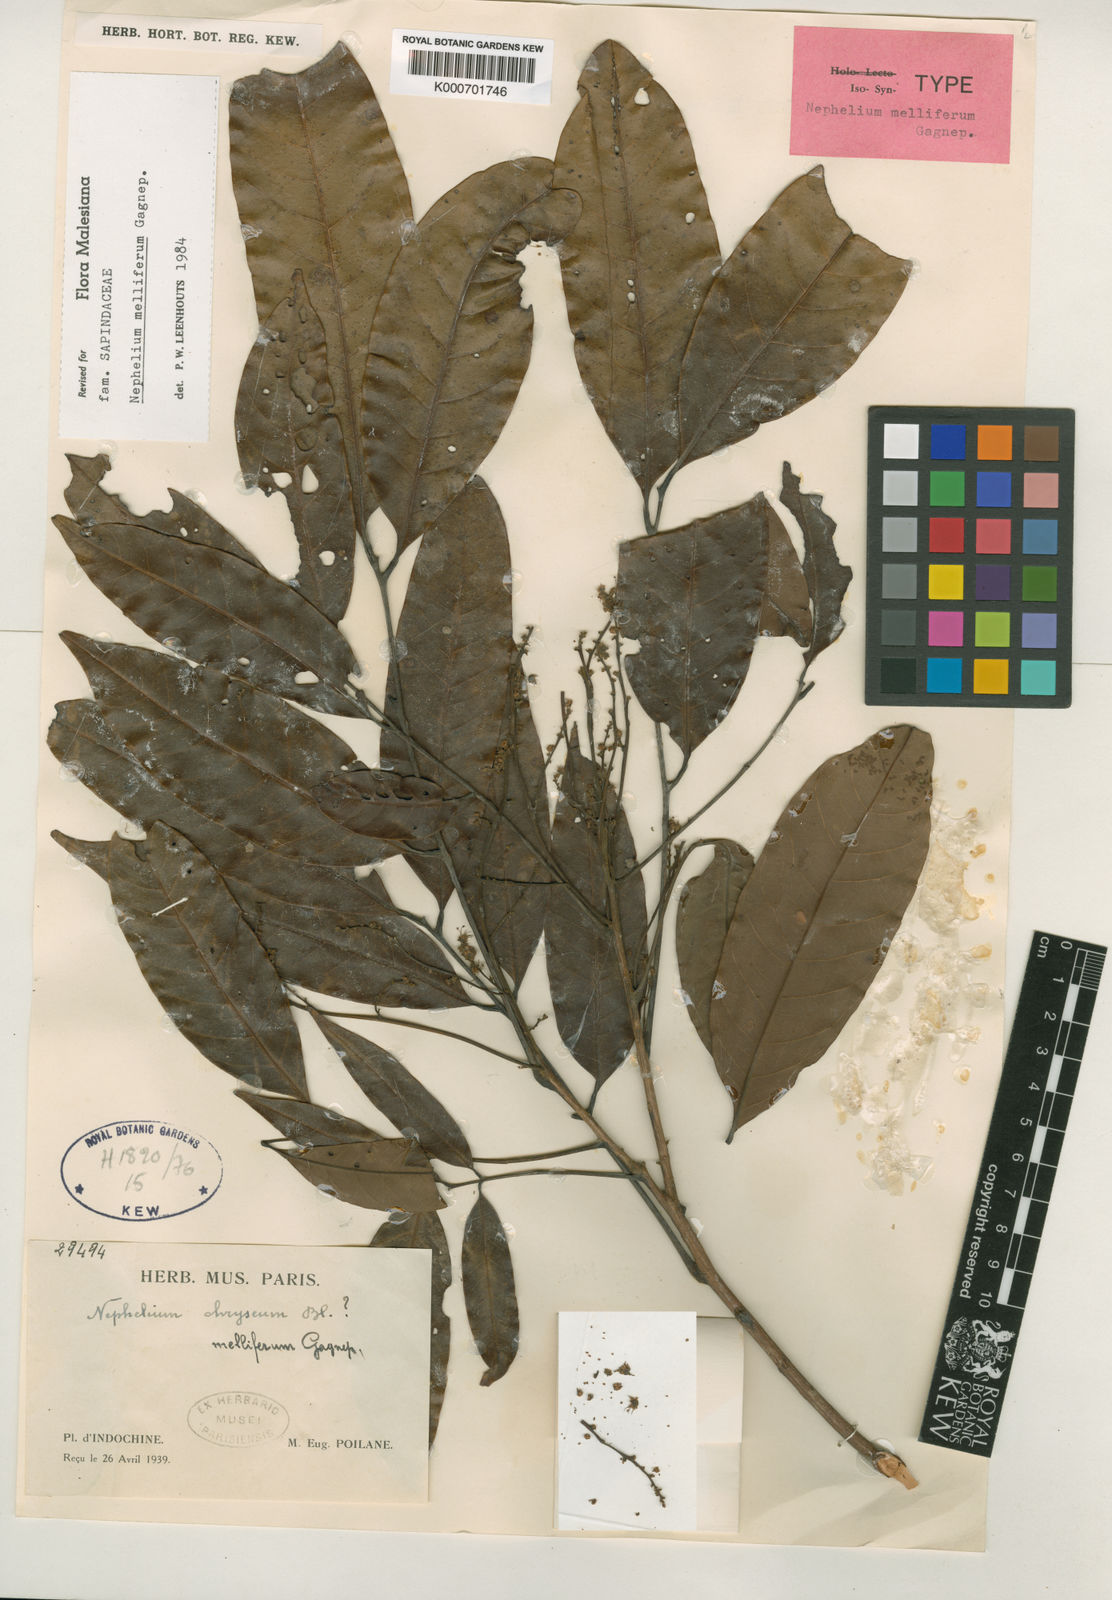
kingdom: Plantae
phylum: Tracheophyta
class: Magnoliopsida
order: Sapindales
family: Sapindaceae
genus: Nephelium
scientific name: Nephelium melliferum
